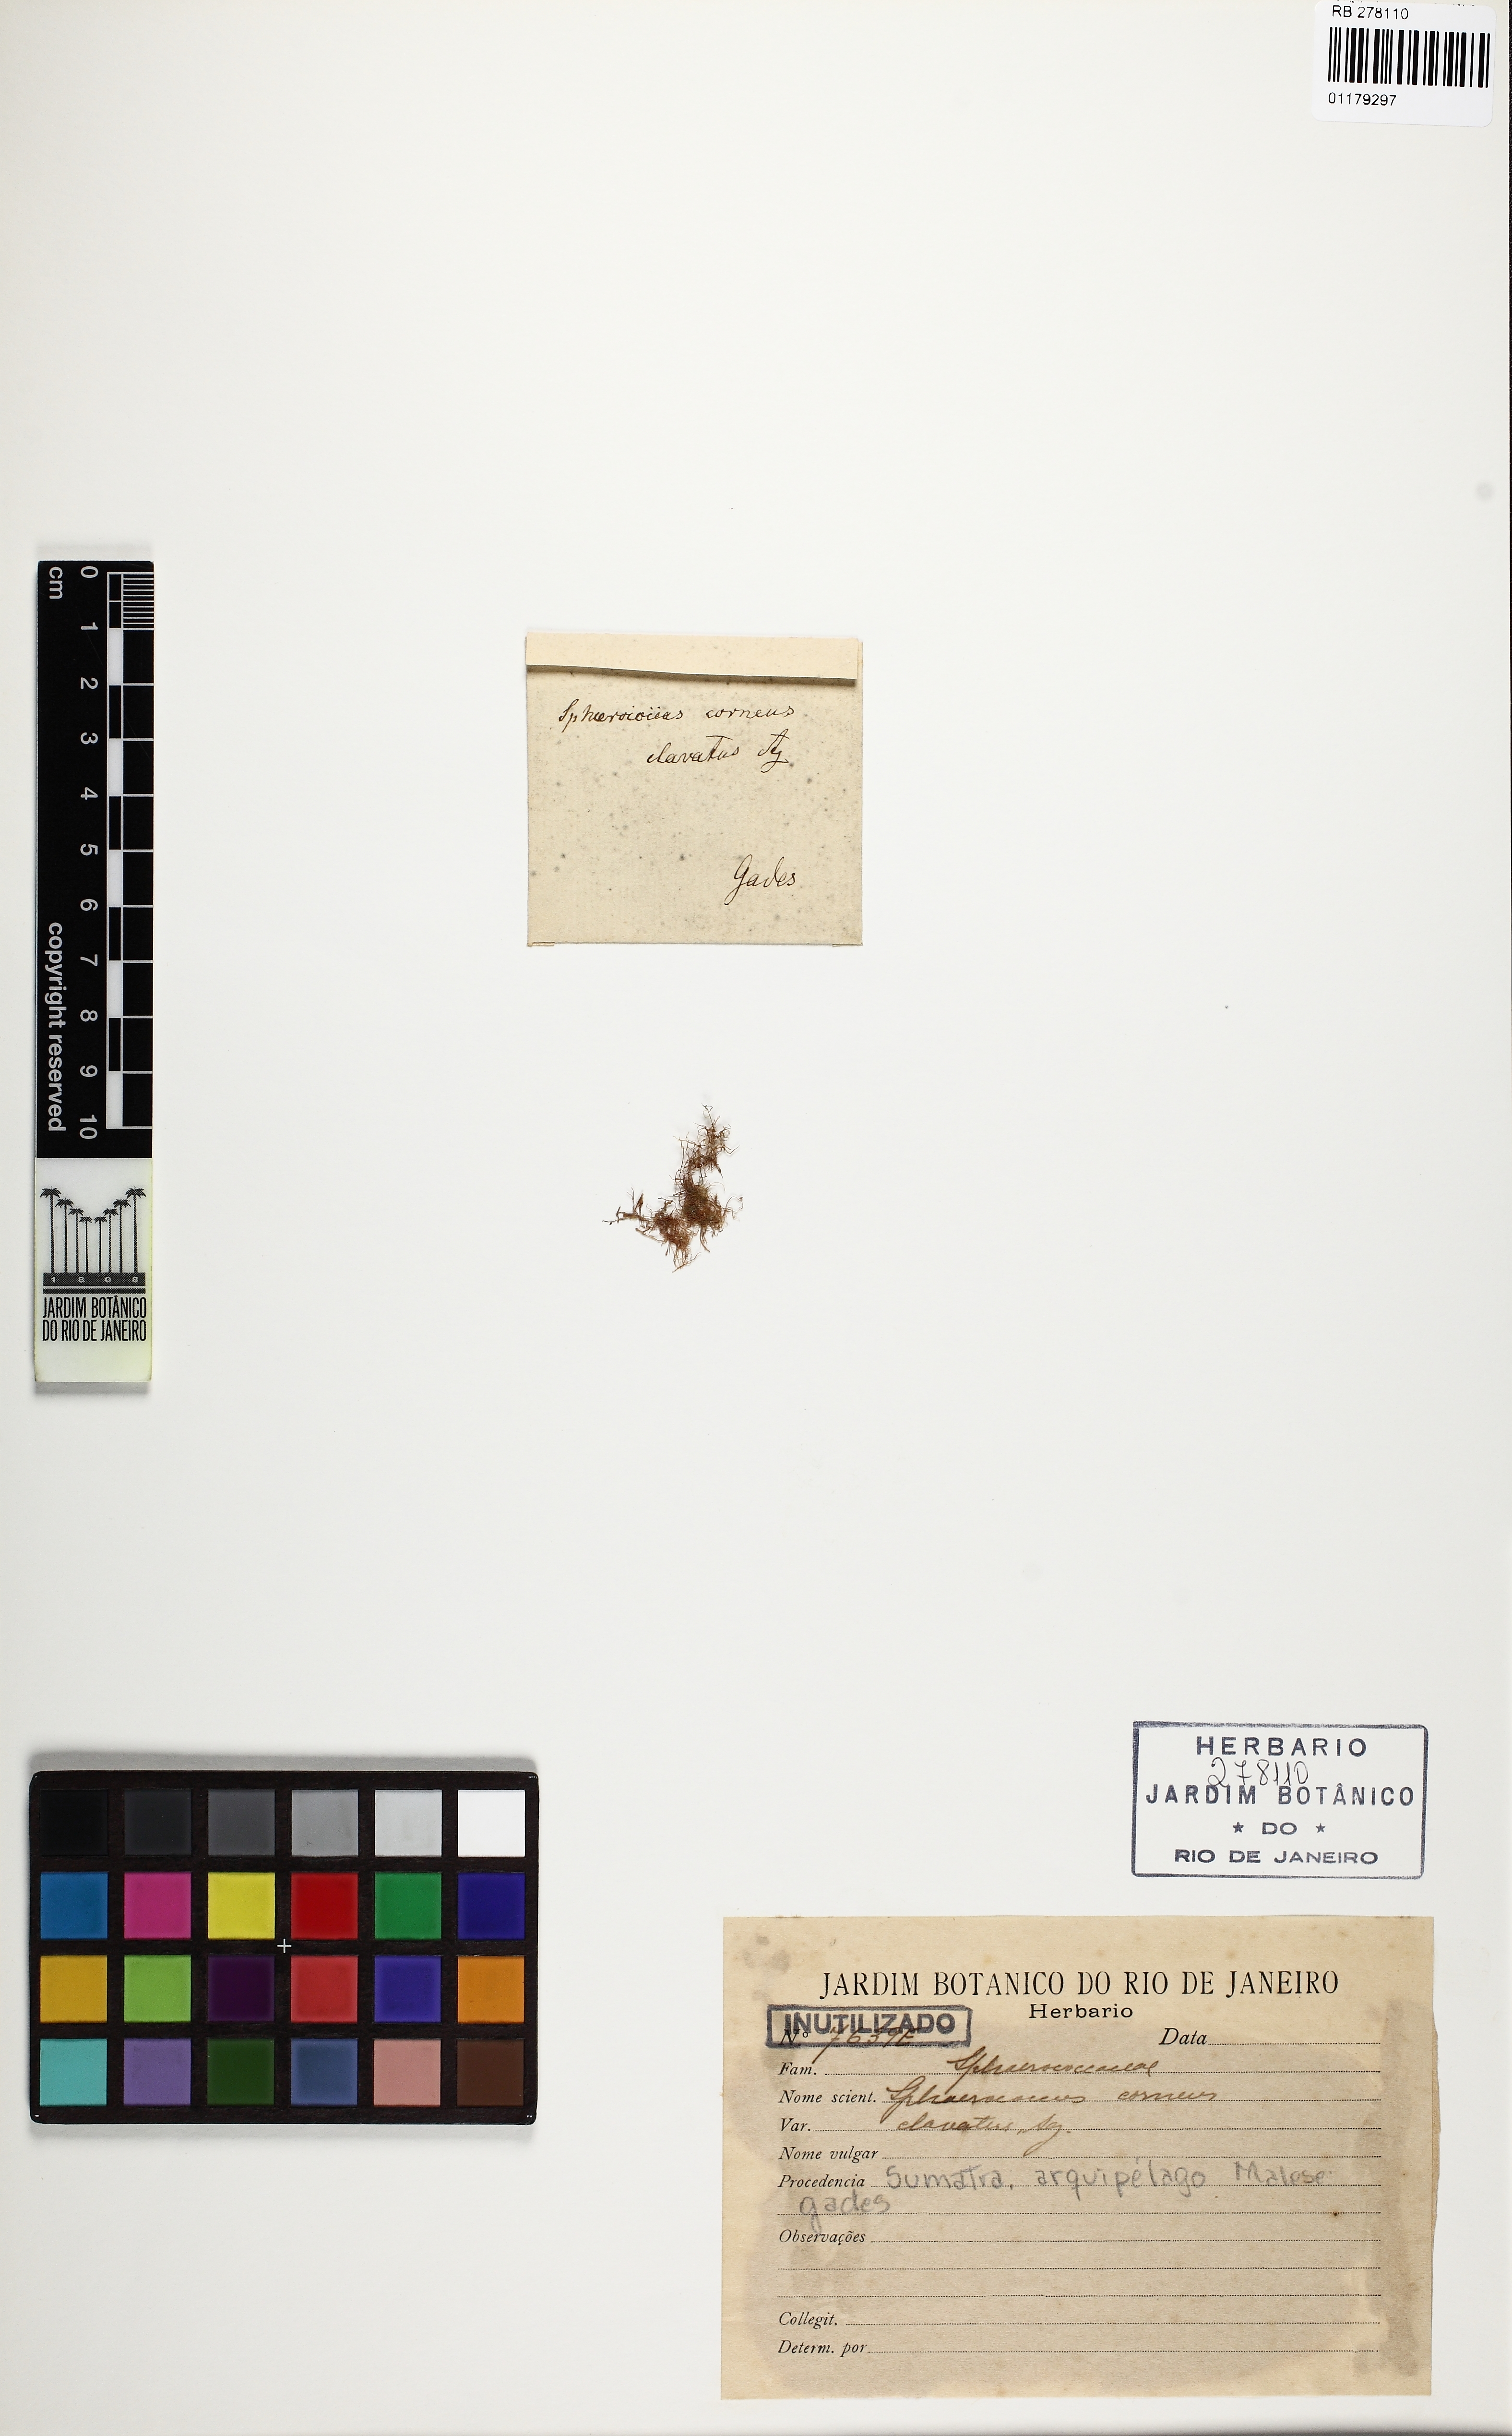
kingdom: Plantae
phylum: Rhodophyta
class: Florideophyceae
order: Gelidiales
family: Gelidiaceae
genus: Gelidium
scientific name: Gelidium spinosum
